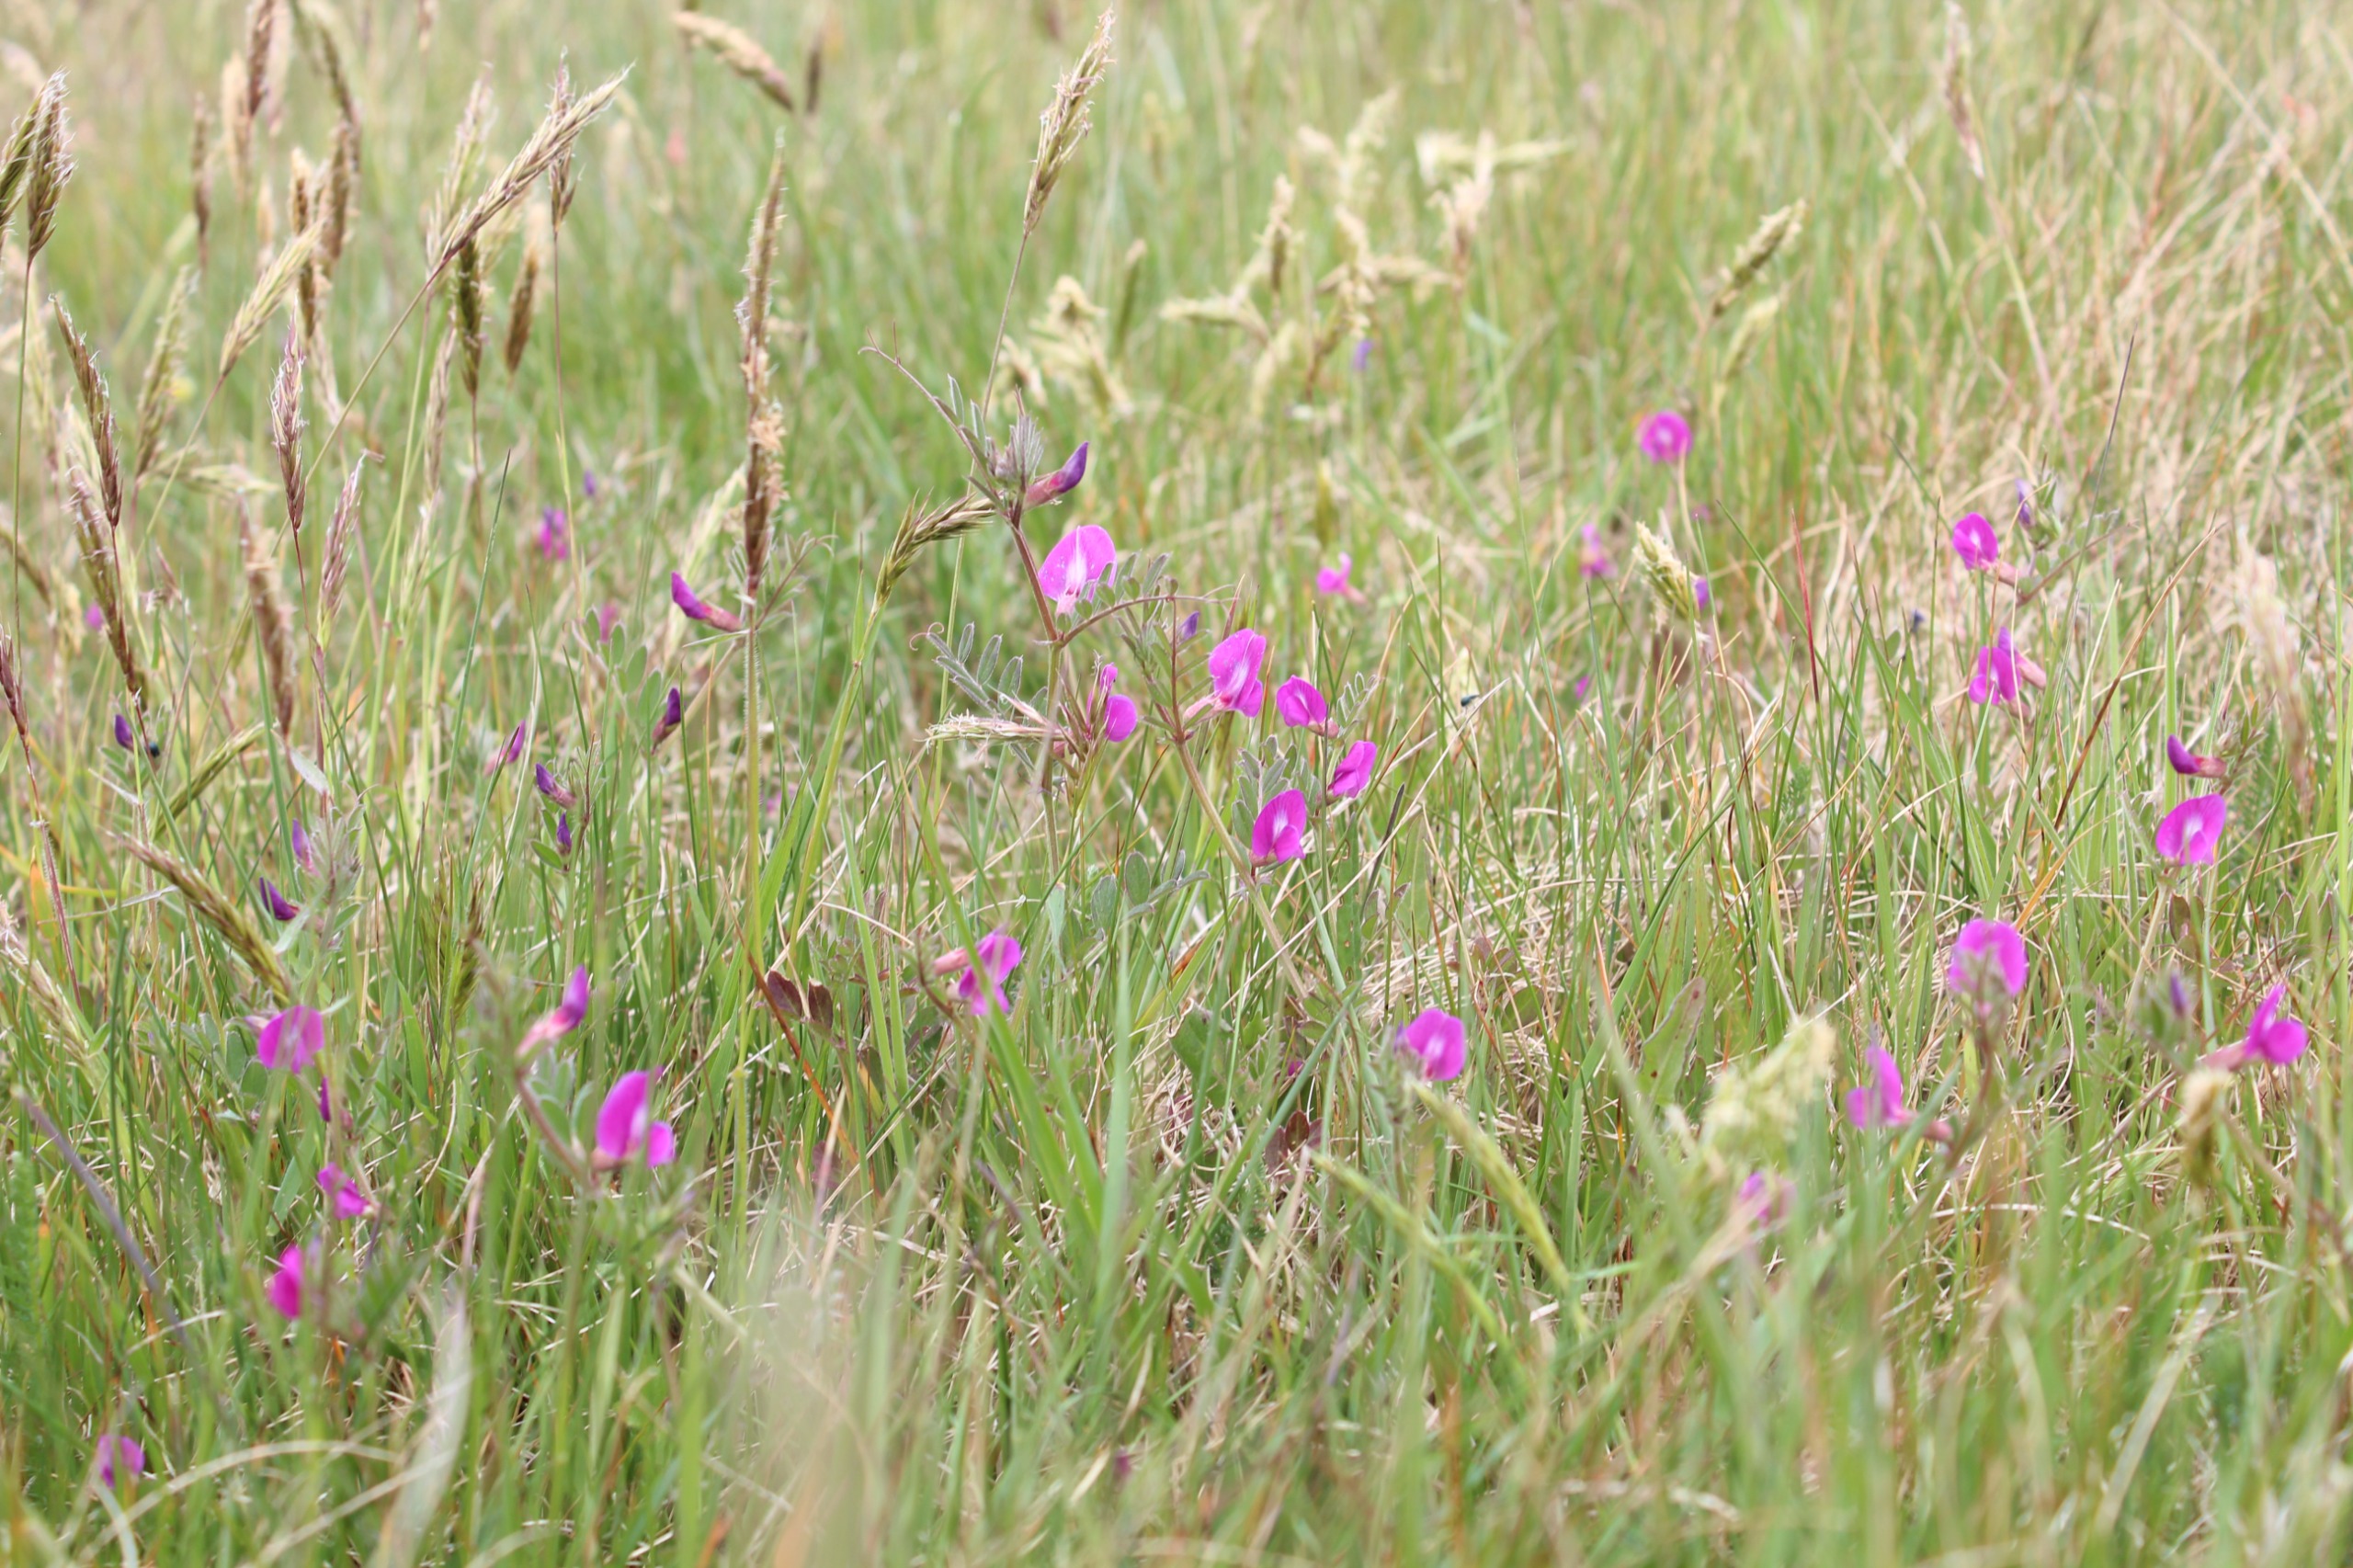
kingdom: Plantae
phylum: Tracheophyta
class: Magnoliopsida
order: Fabales
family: Fabaceae
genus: Vicia
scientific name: Vicia sativa
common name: Smalbladet vikke
